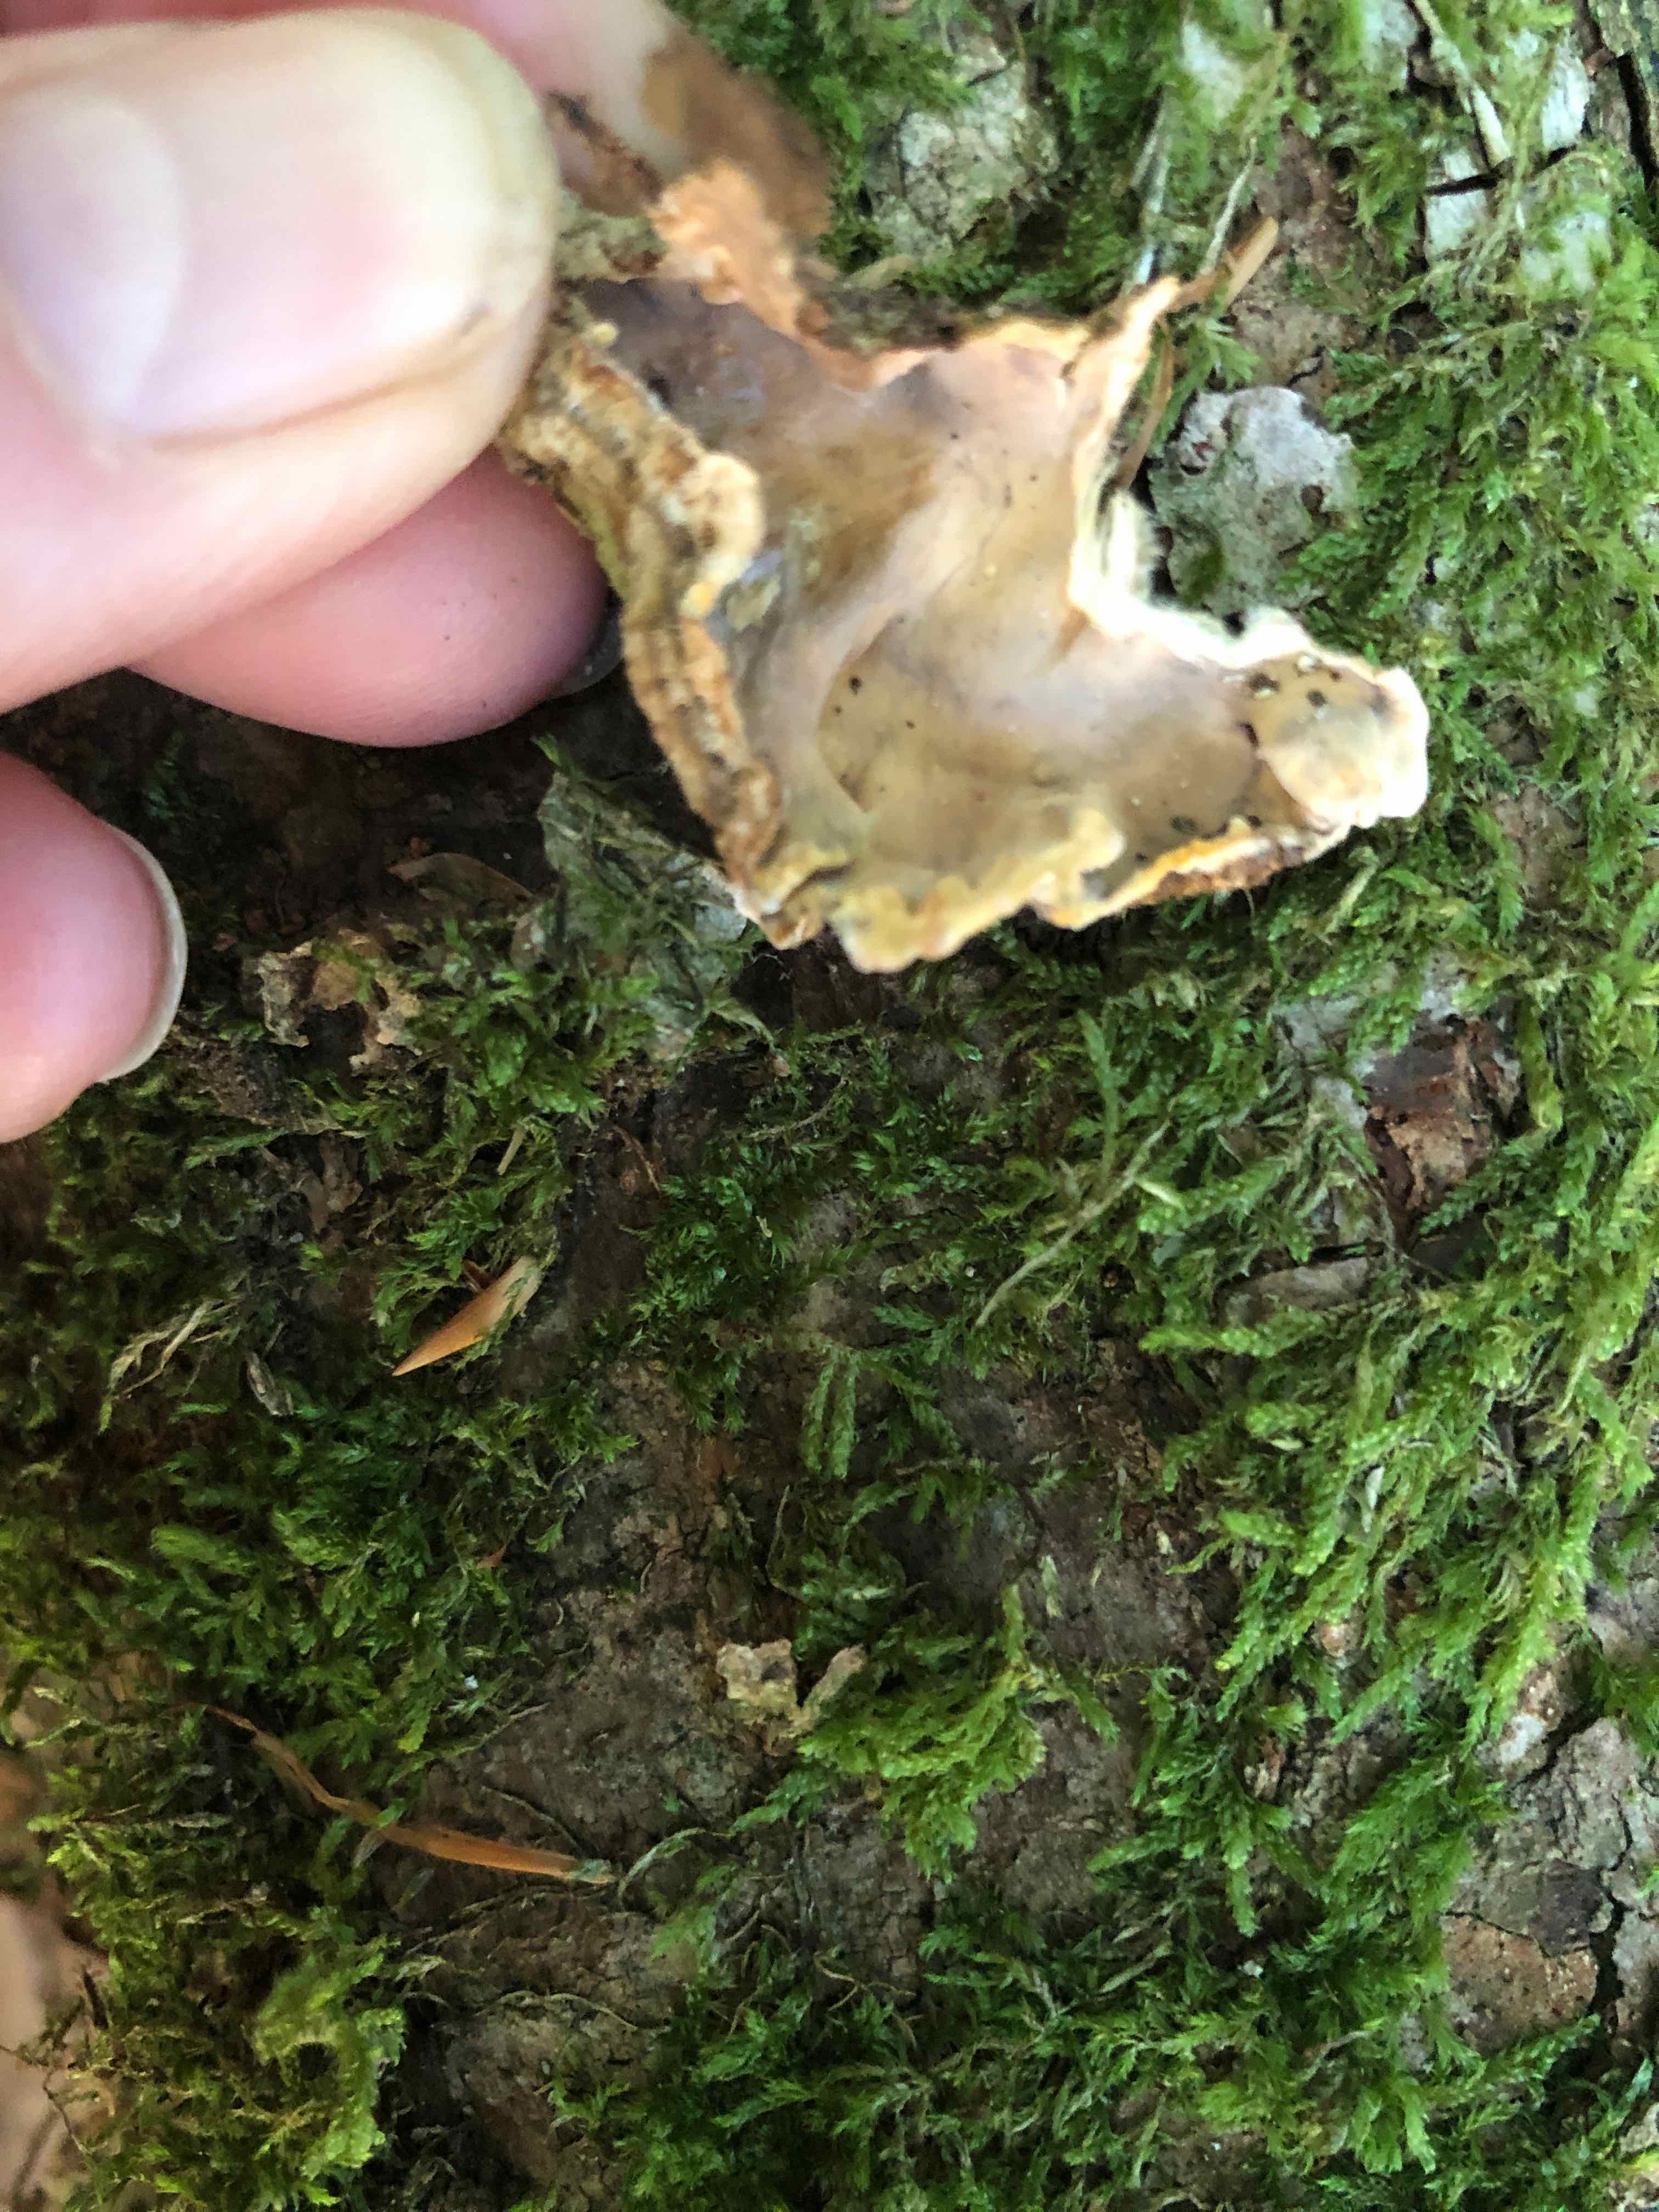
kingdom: Fungi
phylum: Basidiomycota
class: Agaricomycetes
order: Russulales
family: Stereaceae
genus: Stereum
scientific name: Stereum
